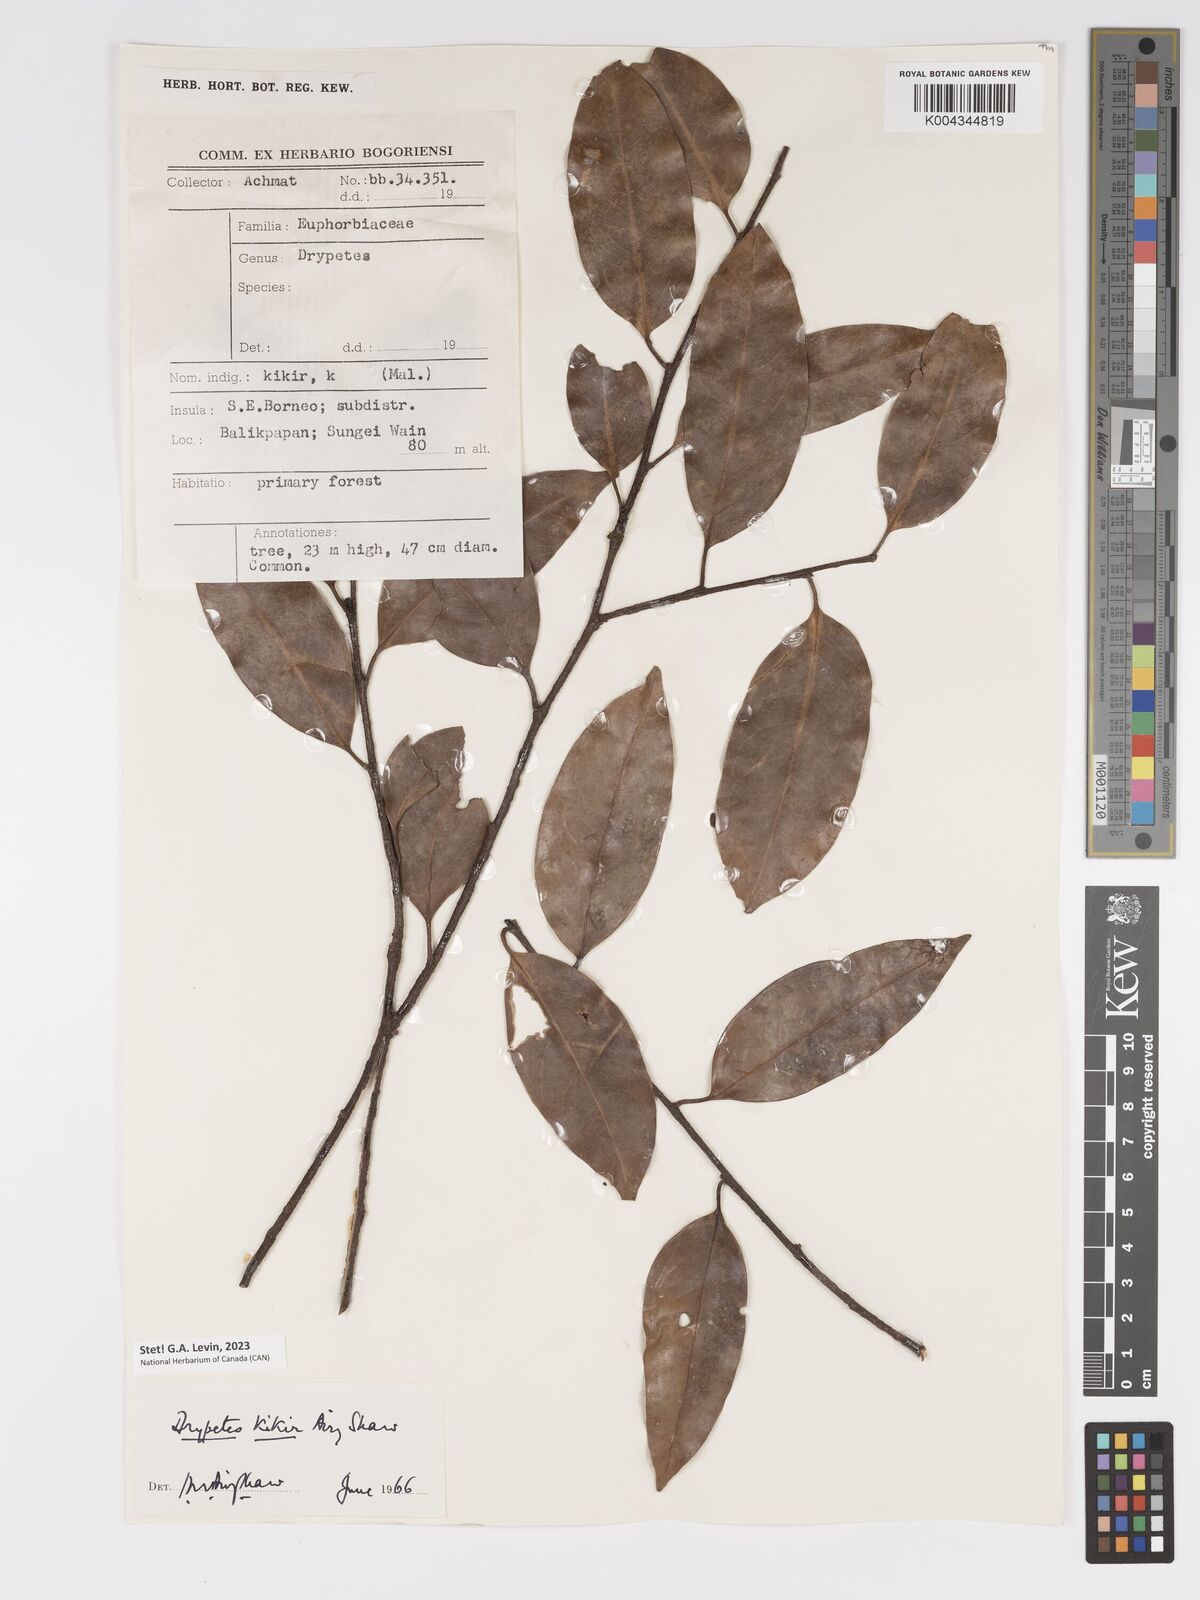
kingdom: Plantae
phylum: Tracheophyta
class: Magnoliopsida
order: Malpighiales
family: Putranjivaceae
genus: Drypetes
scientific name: Drypetes kikir
